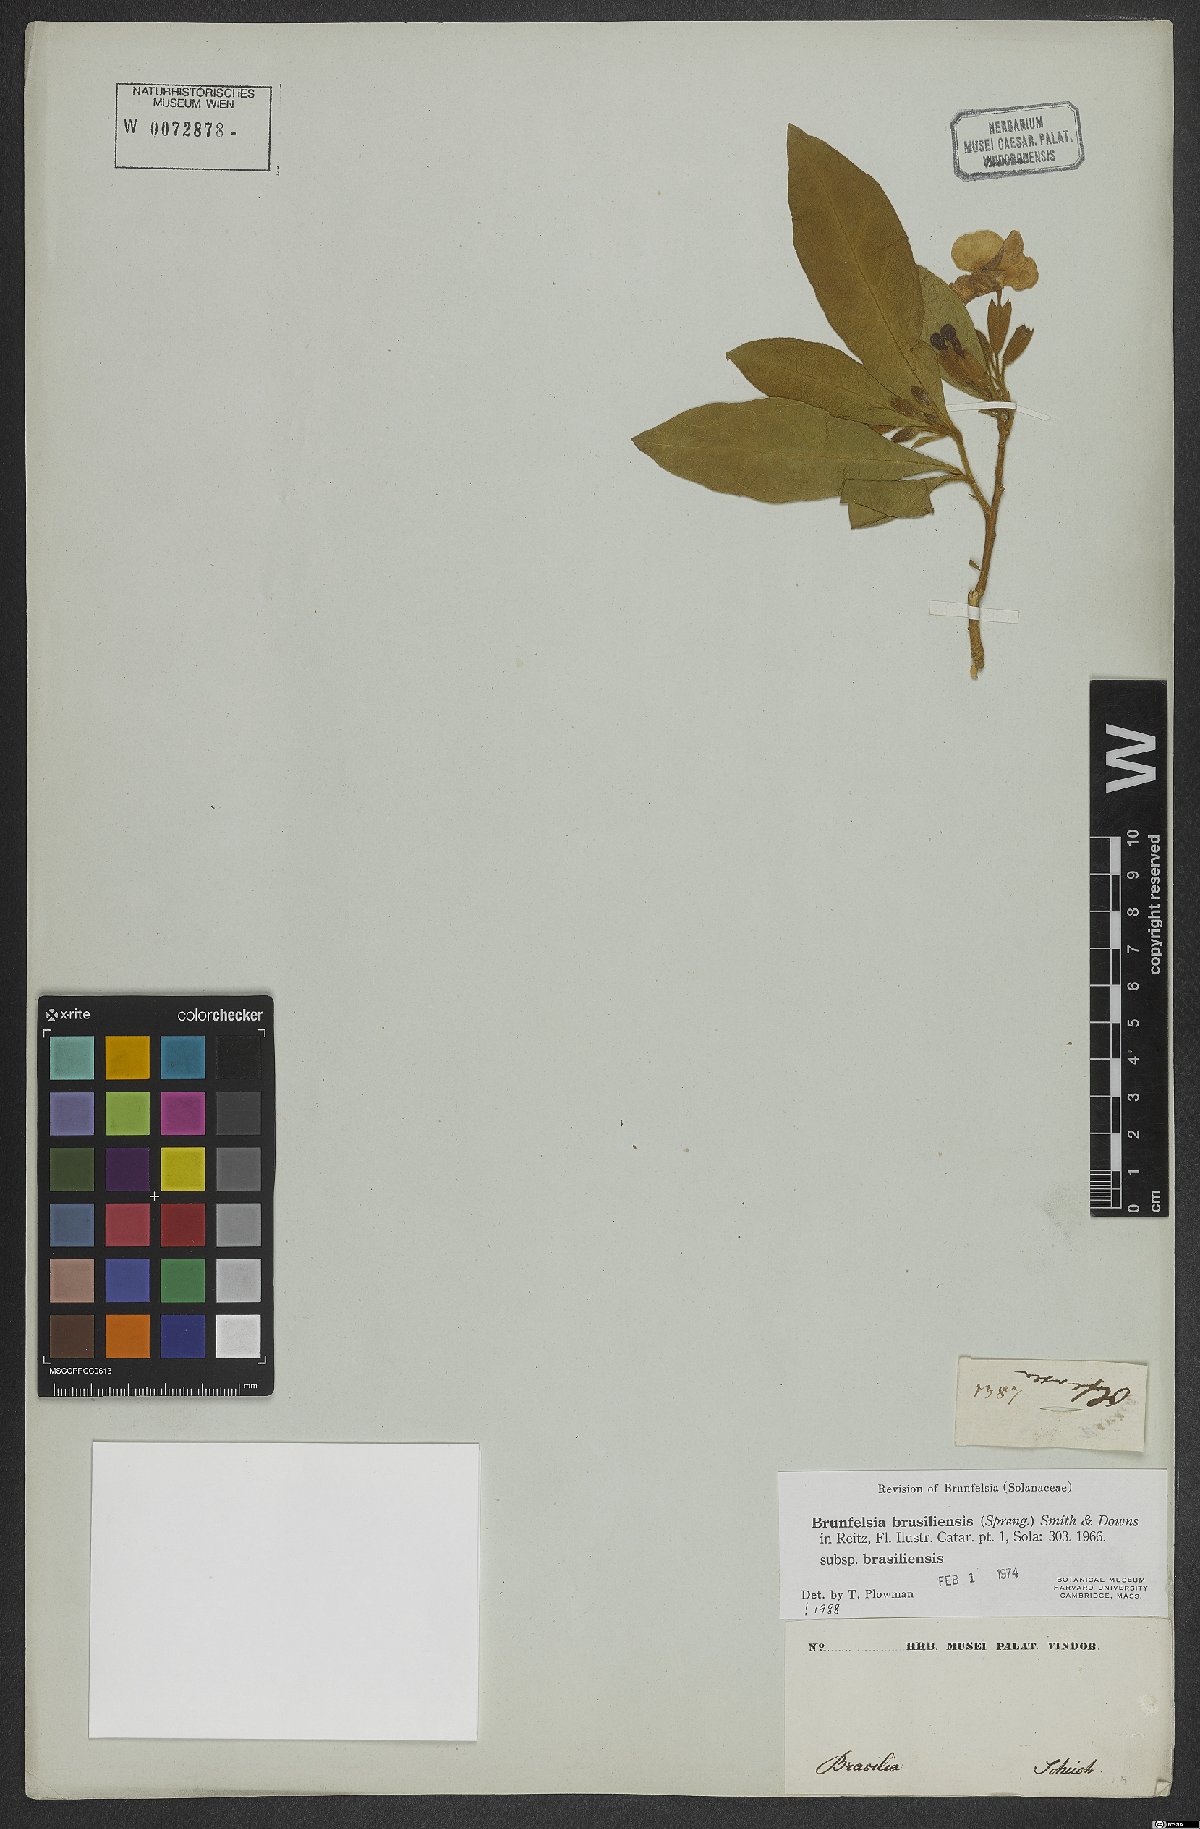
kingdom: Plantae
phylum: Tracheophyta
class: Magnoliopsida
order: Solanales
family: Solanaceae
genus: Brunfelsia
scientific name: Brunfelsia brasiliensis
